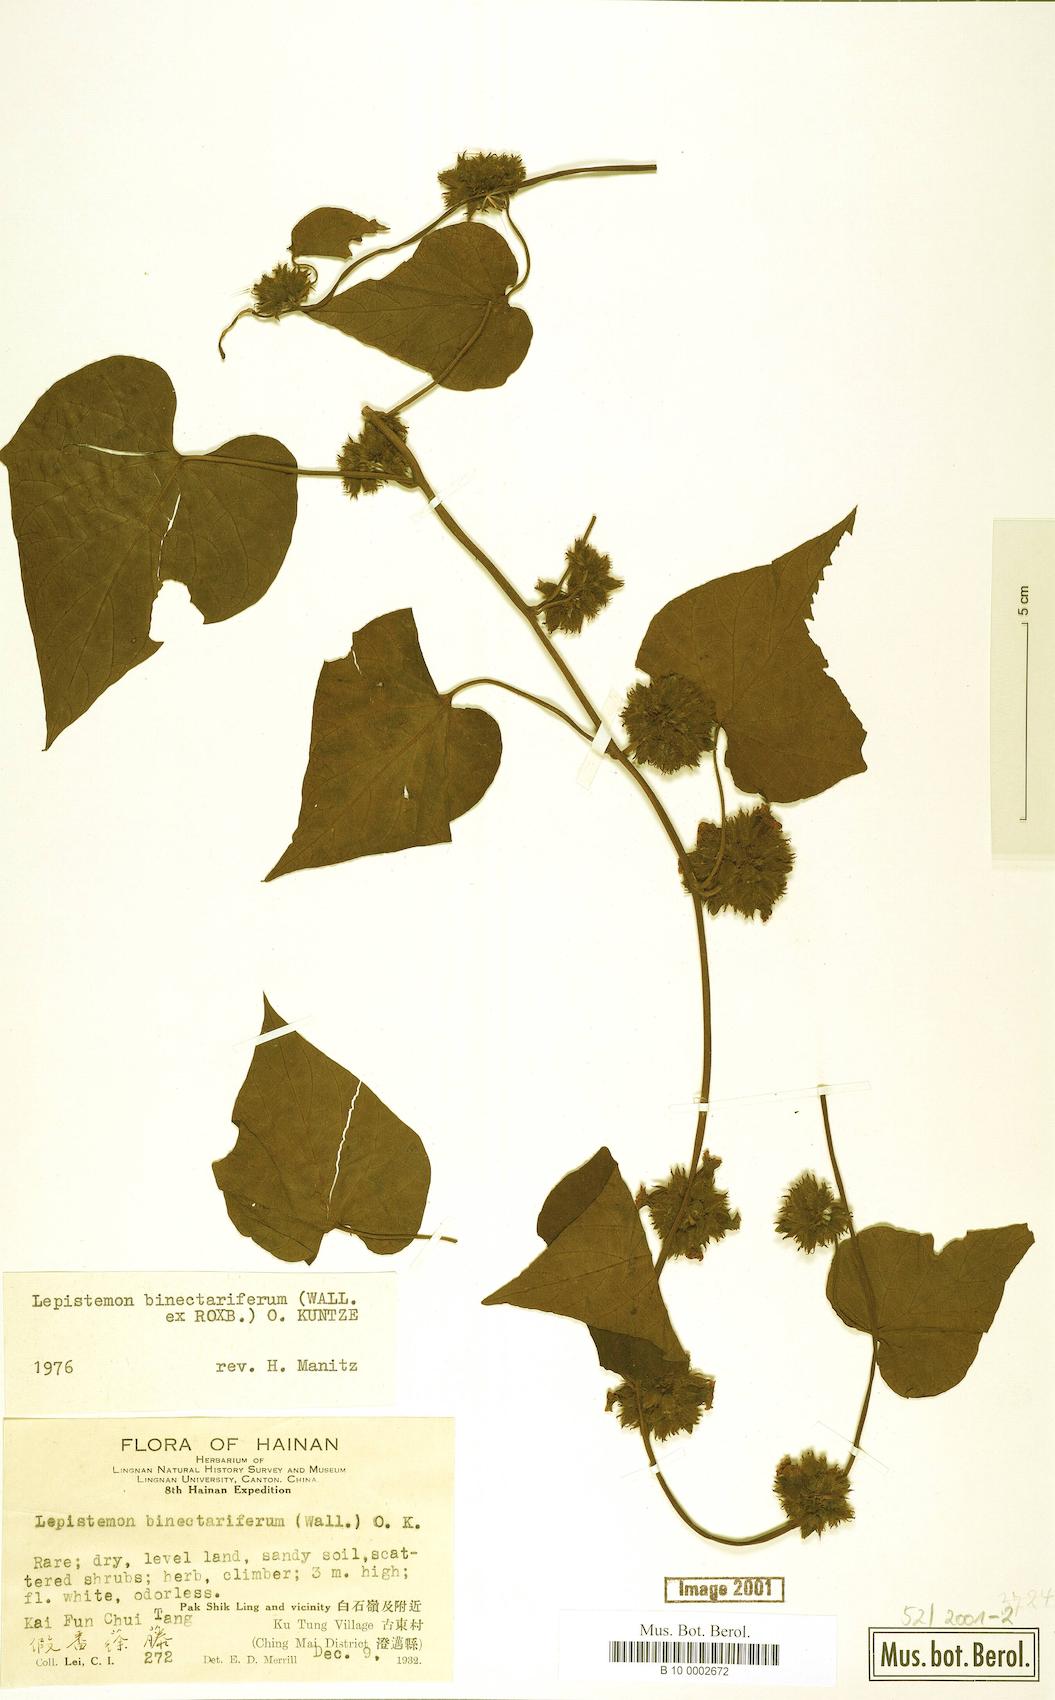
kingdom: Plantae
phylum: Tracheophyta
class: Magnoliopsida
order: Solanales
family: Convolvulaceae
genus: Lepistemon
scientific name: Lepistemon binectariferum
